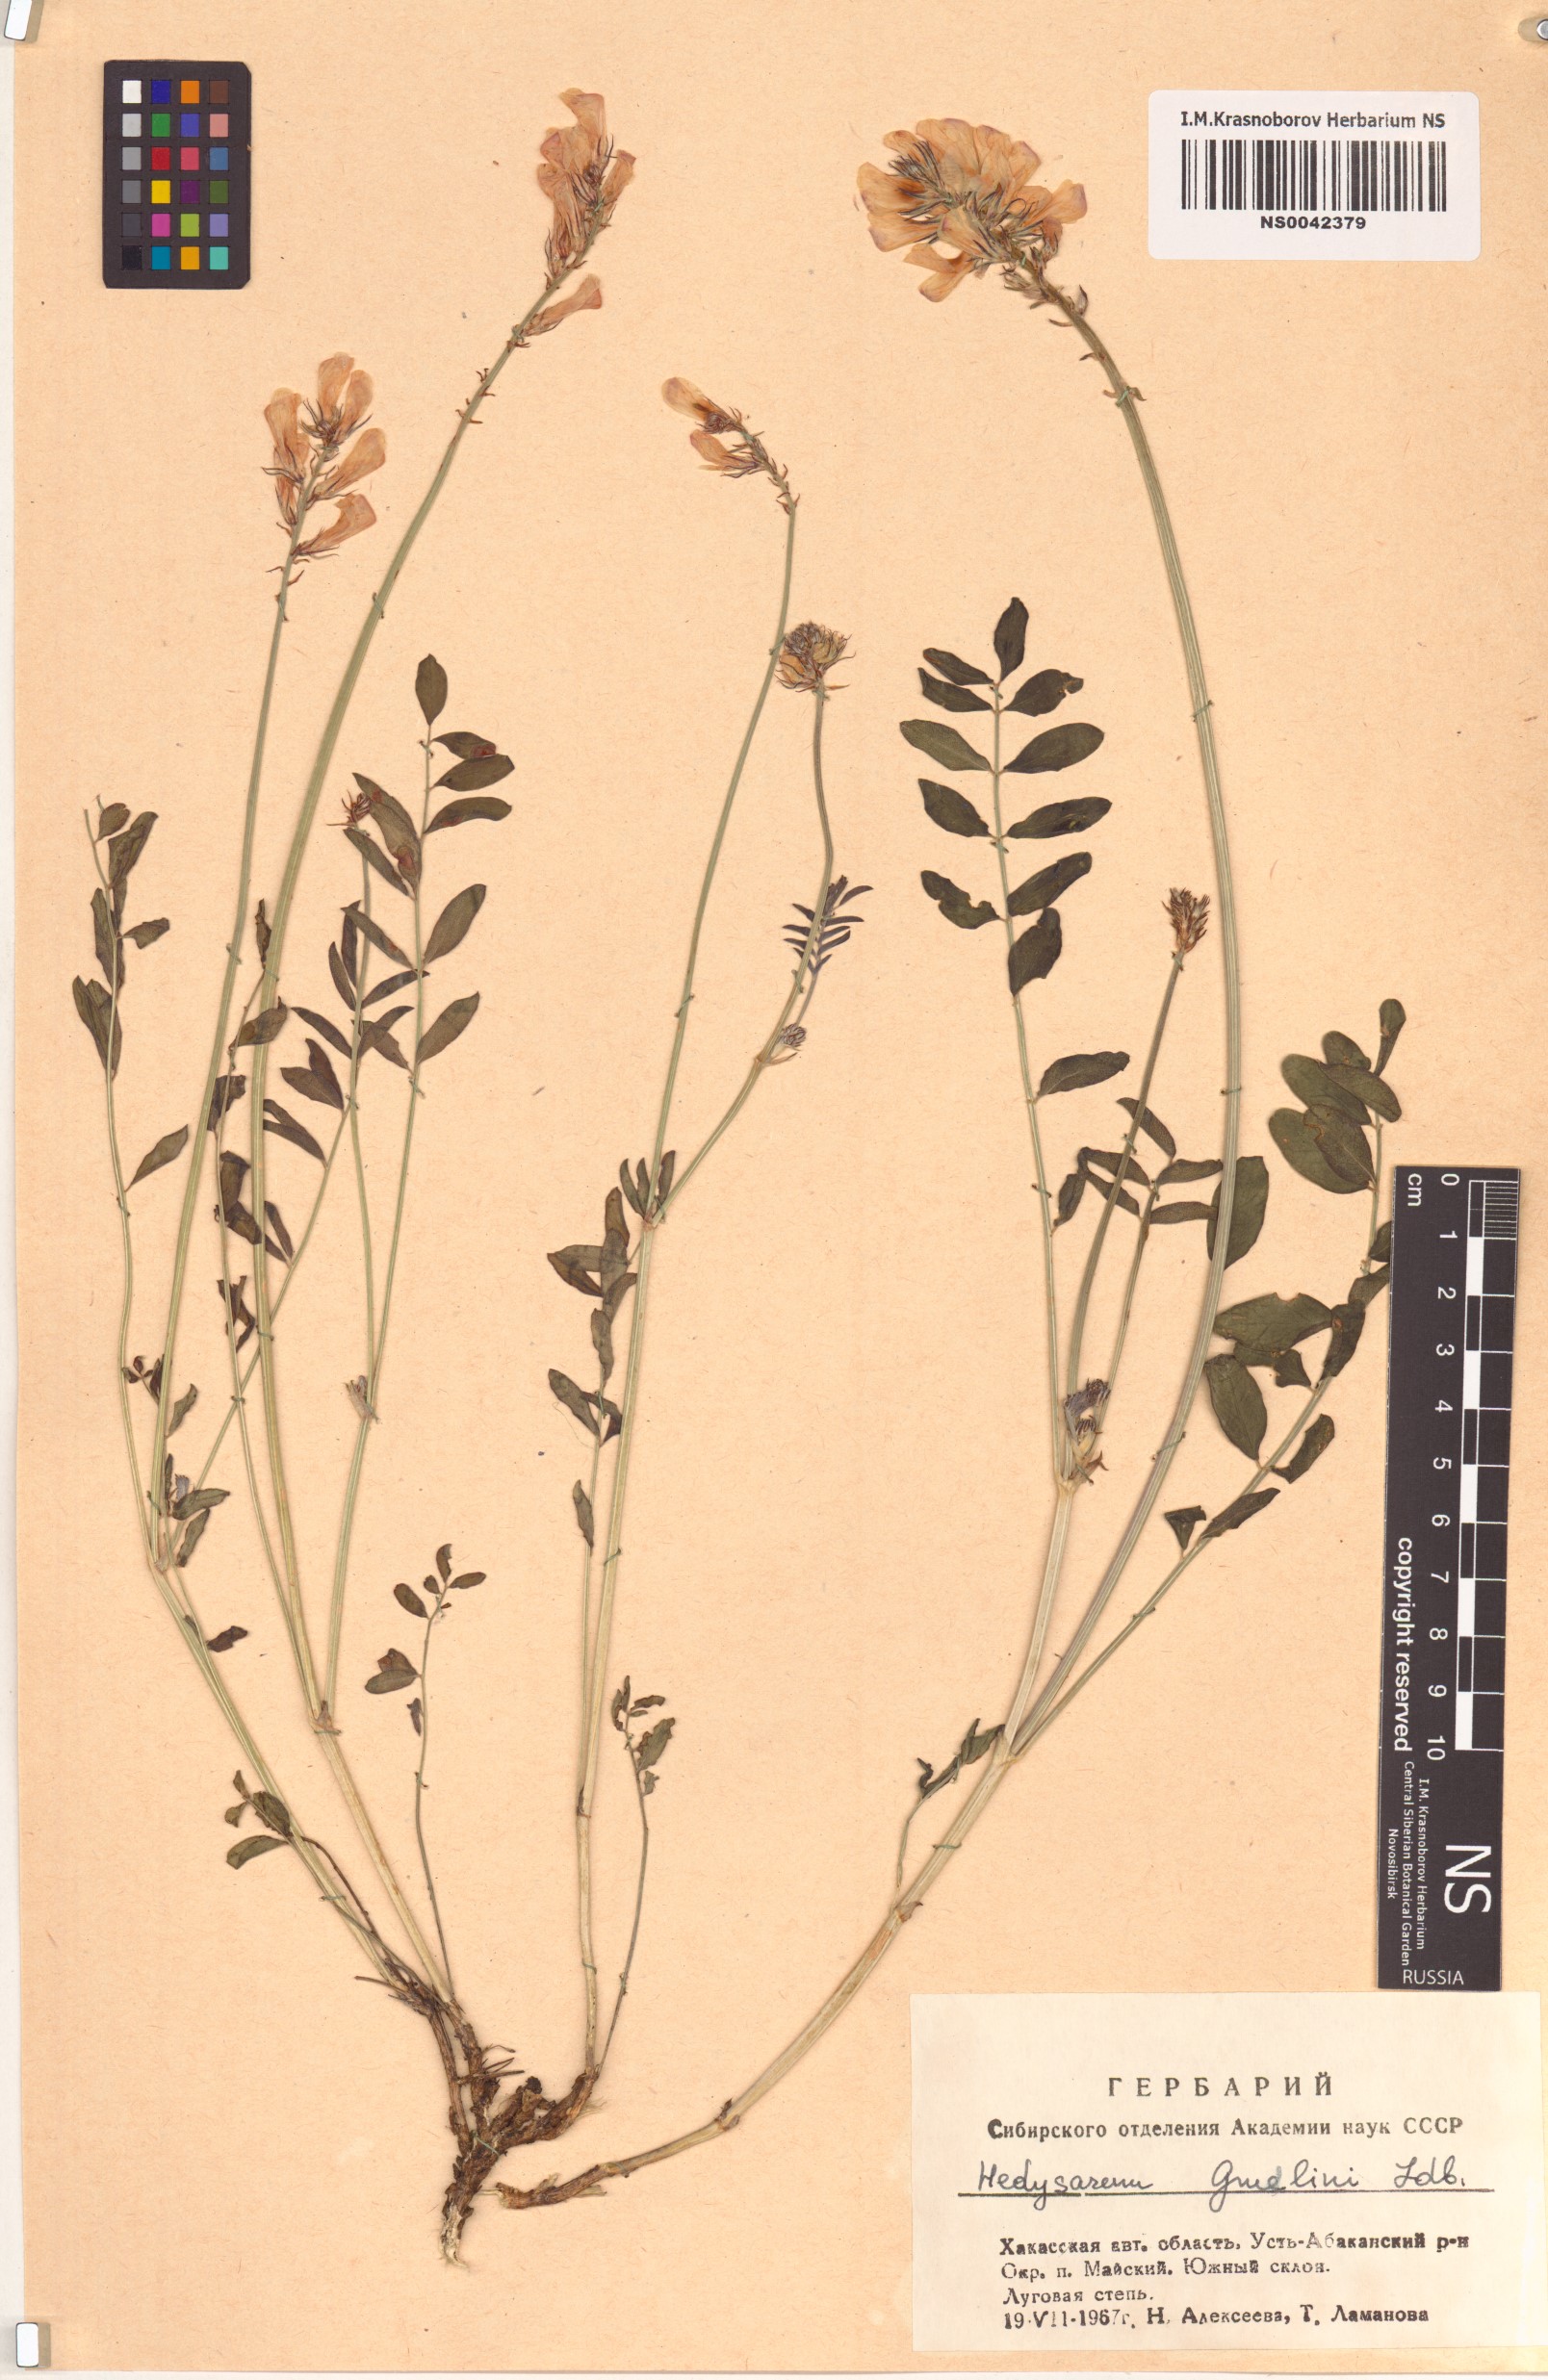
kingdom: Plantae
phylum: Tracheophyta
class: Magnoliopsida
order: Fabales
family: Fabaceae
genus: Hedysarum
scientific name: Hedysarum gmelinii
